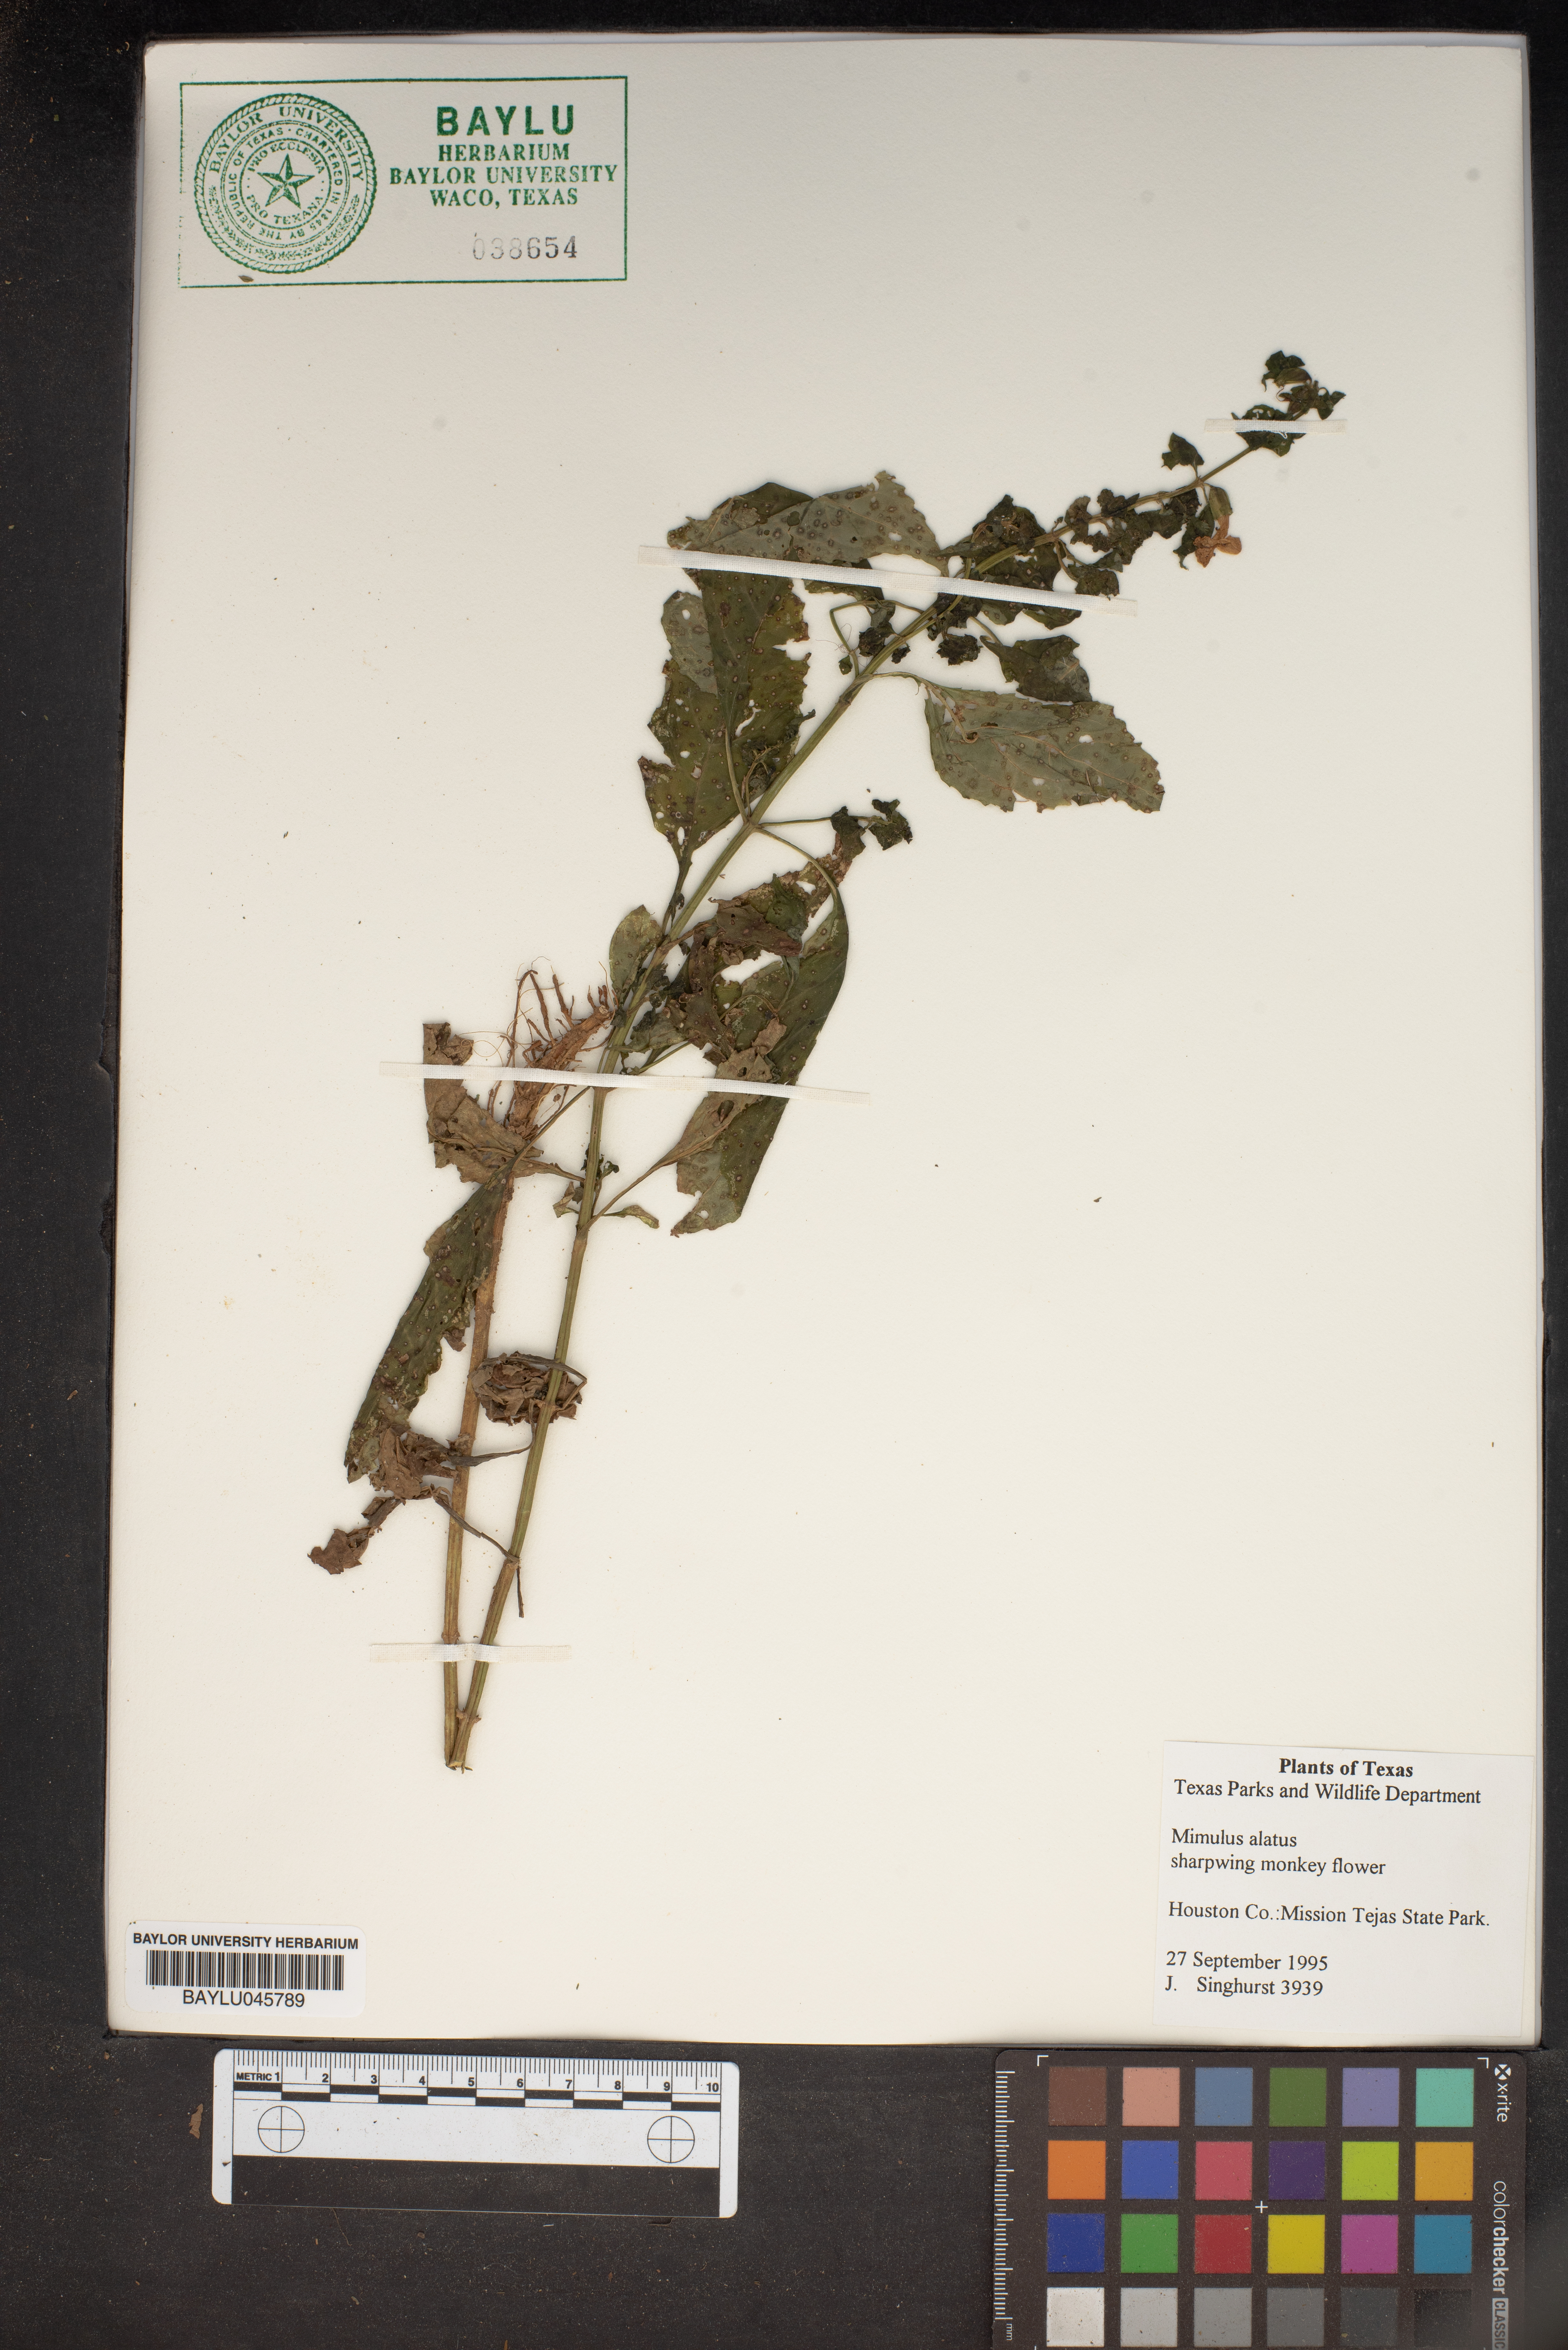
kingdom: Plantae
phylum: Tracheophyta
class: Magnoliopsida
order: Lamiales
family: Phrymaceae
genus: Mimulus
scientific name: Mimulus alatus
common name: Sharp-wing monkey-flower
